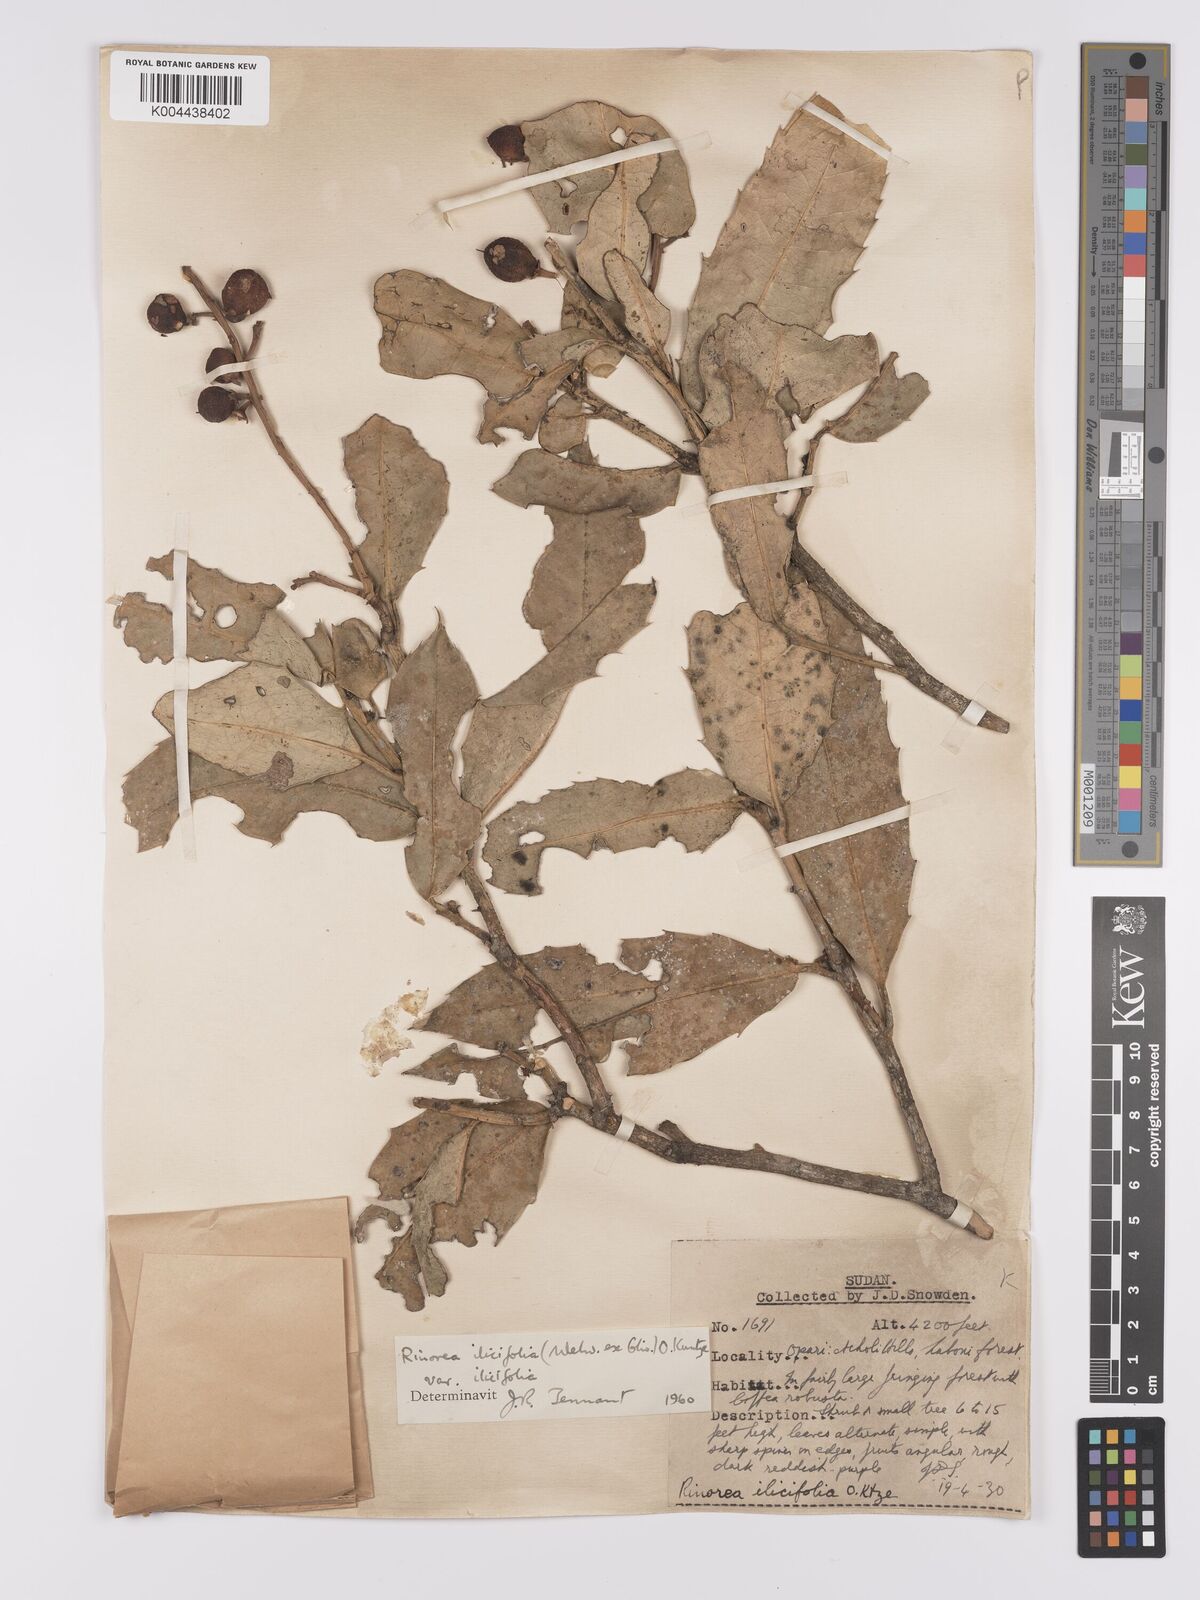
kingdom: Plantae
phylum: Tracheophyta
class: Magnoliopsida
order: Malpighiales
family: Violaceae
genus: Rinorea
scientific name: Rinorea ilicifolia
